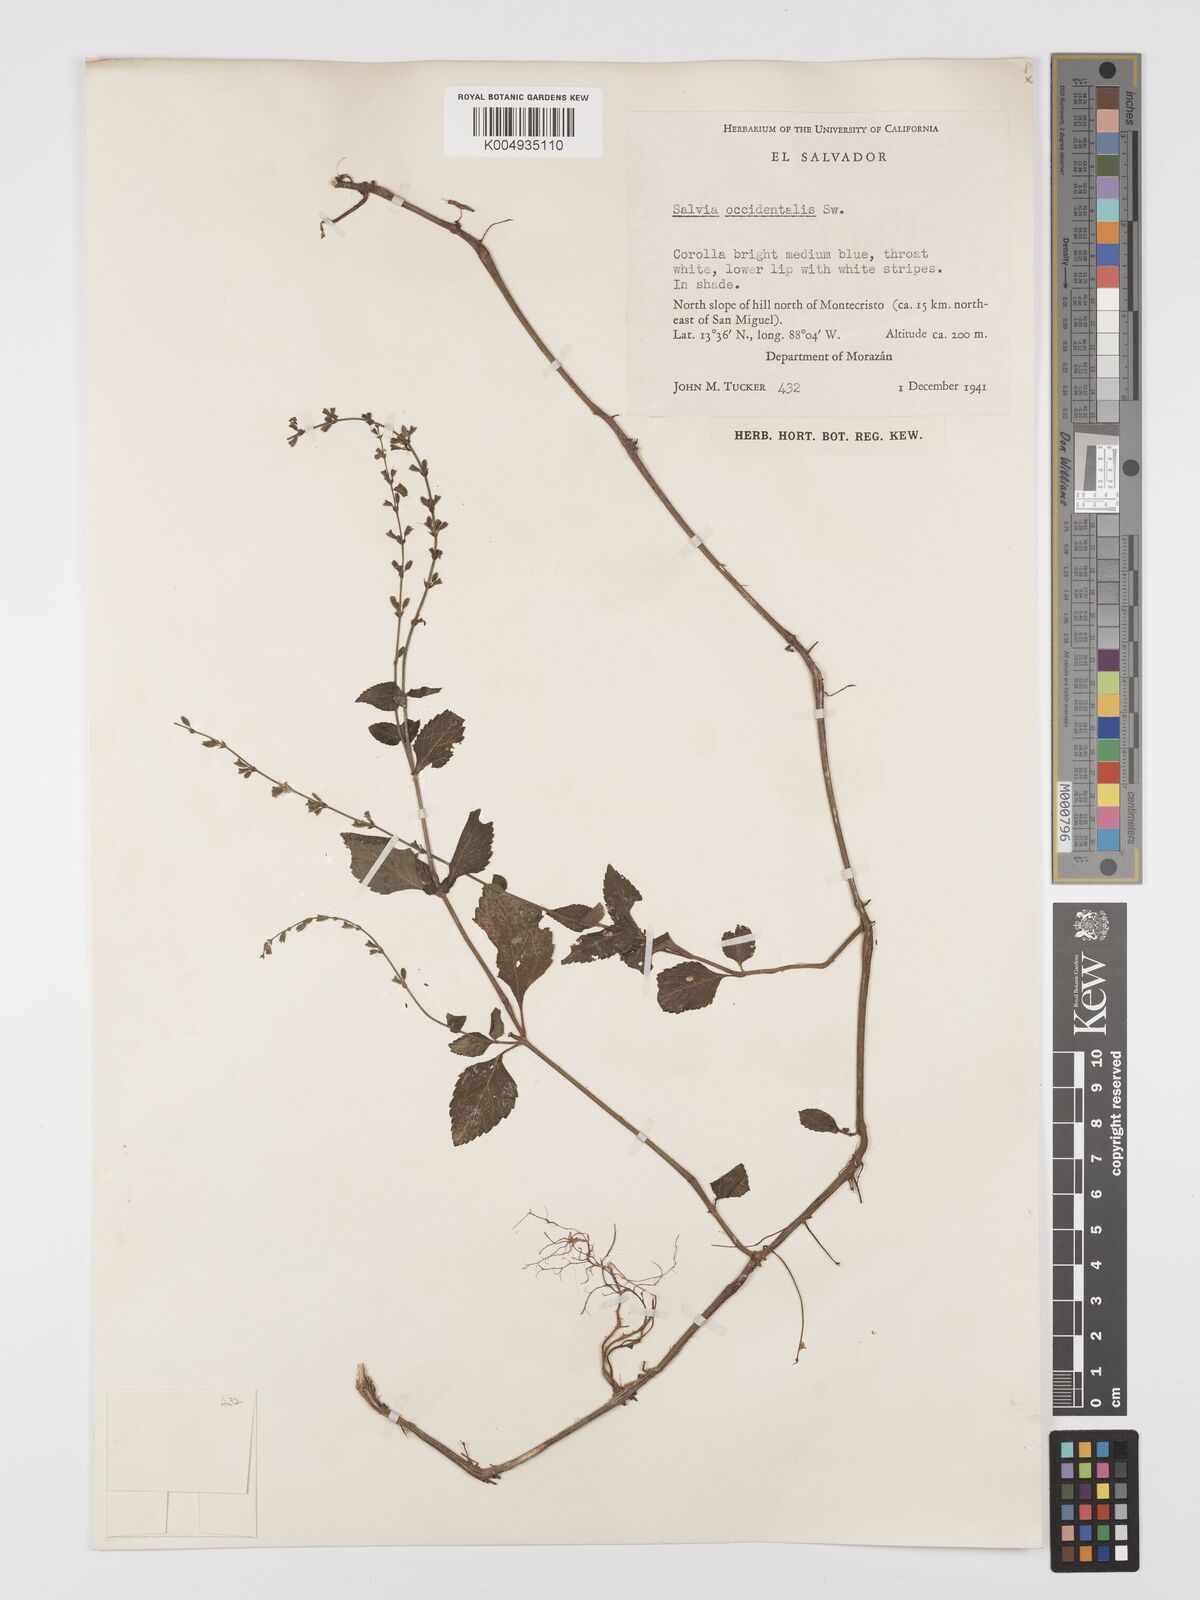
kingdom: Plantae
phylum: Tracheophyta
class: Magnoliopsida
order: Lamiales
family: Lamiaceae
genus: Salvia
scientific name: Salvia occidentalis
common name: West indian sage
